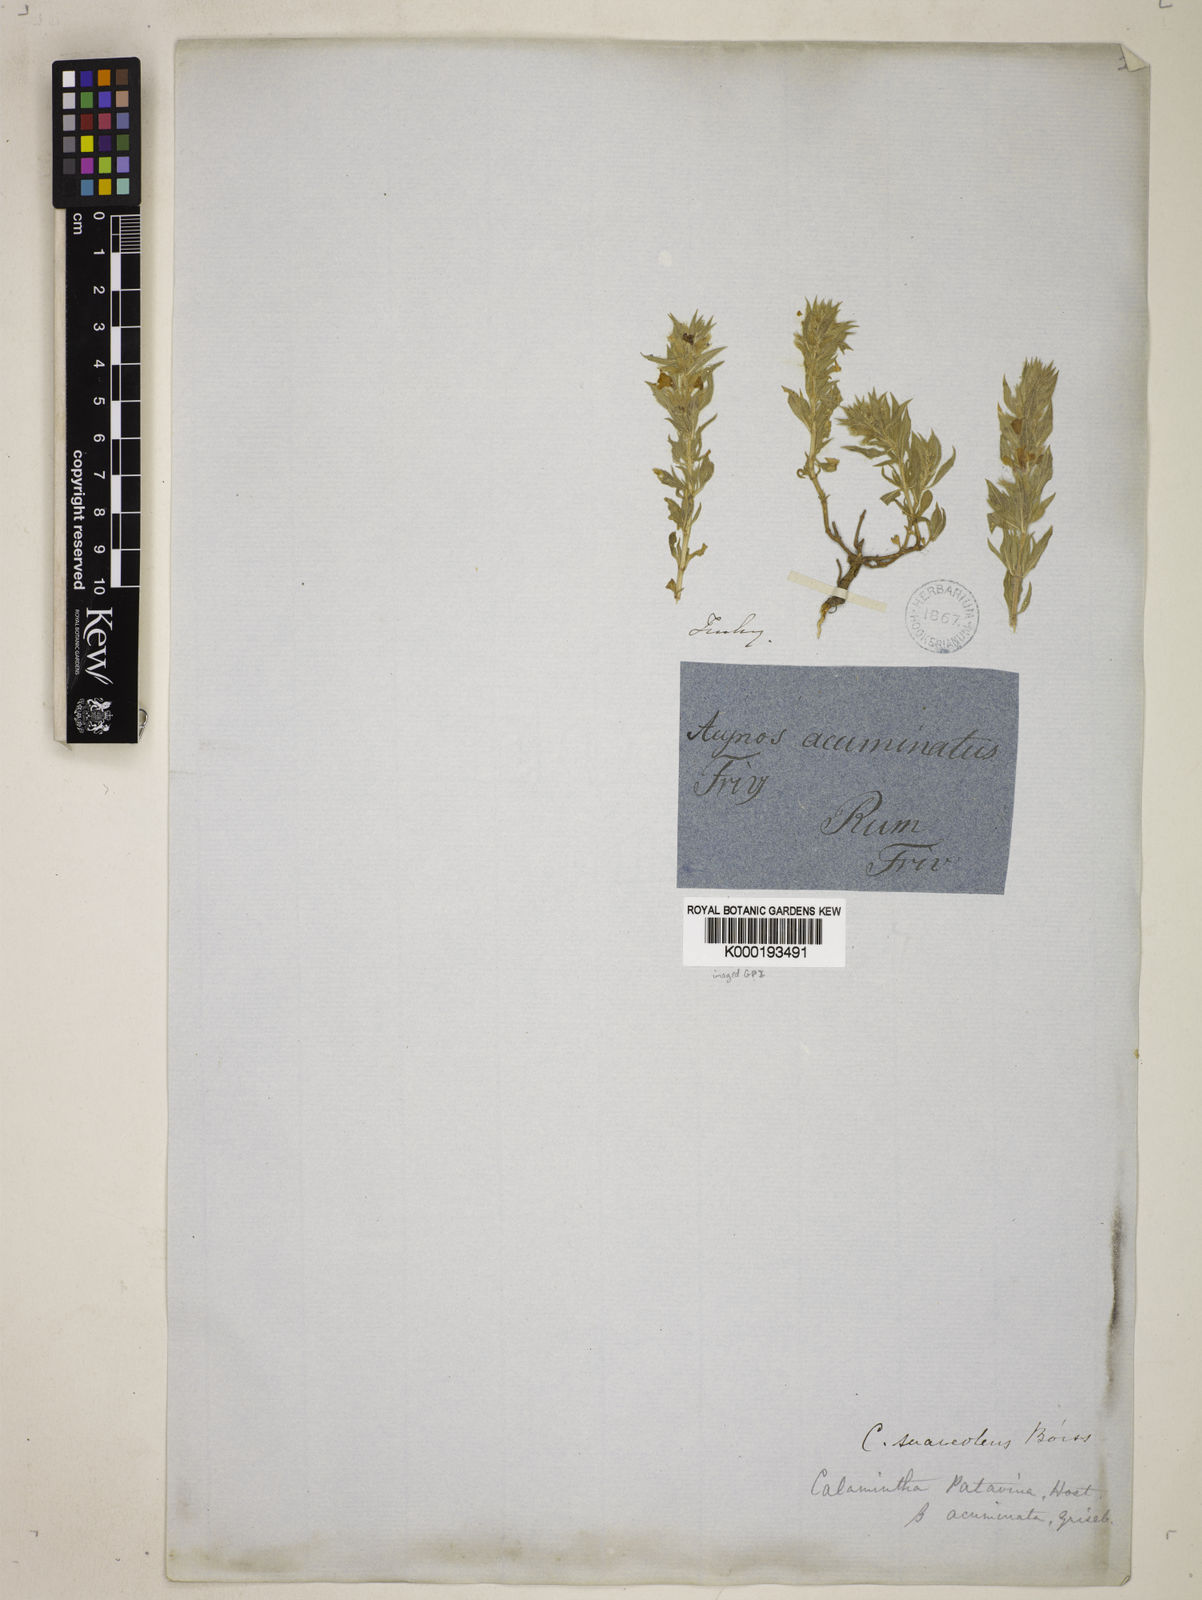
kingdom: Plantae
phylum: Tracheophyta
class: Magnoliopsida
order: Lamiales
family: Lamiaceae
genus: Clinopodium
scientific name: Clinopodium suaveolens
